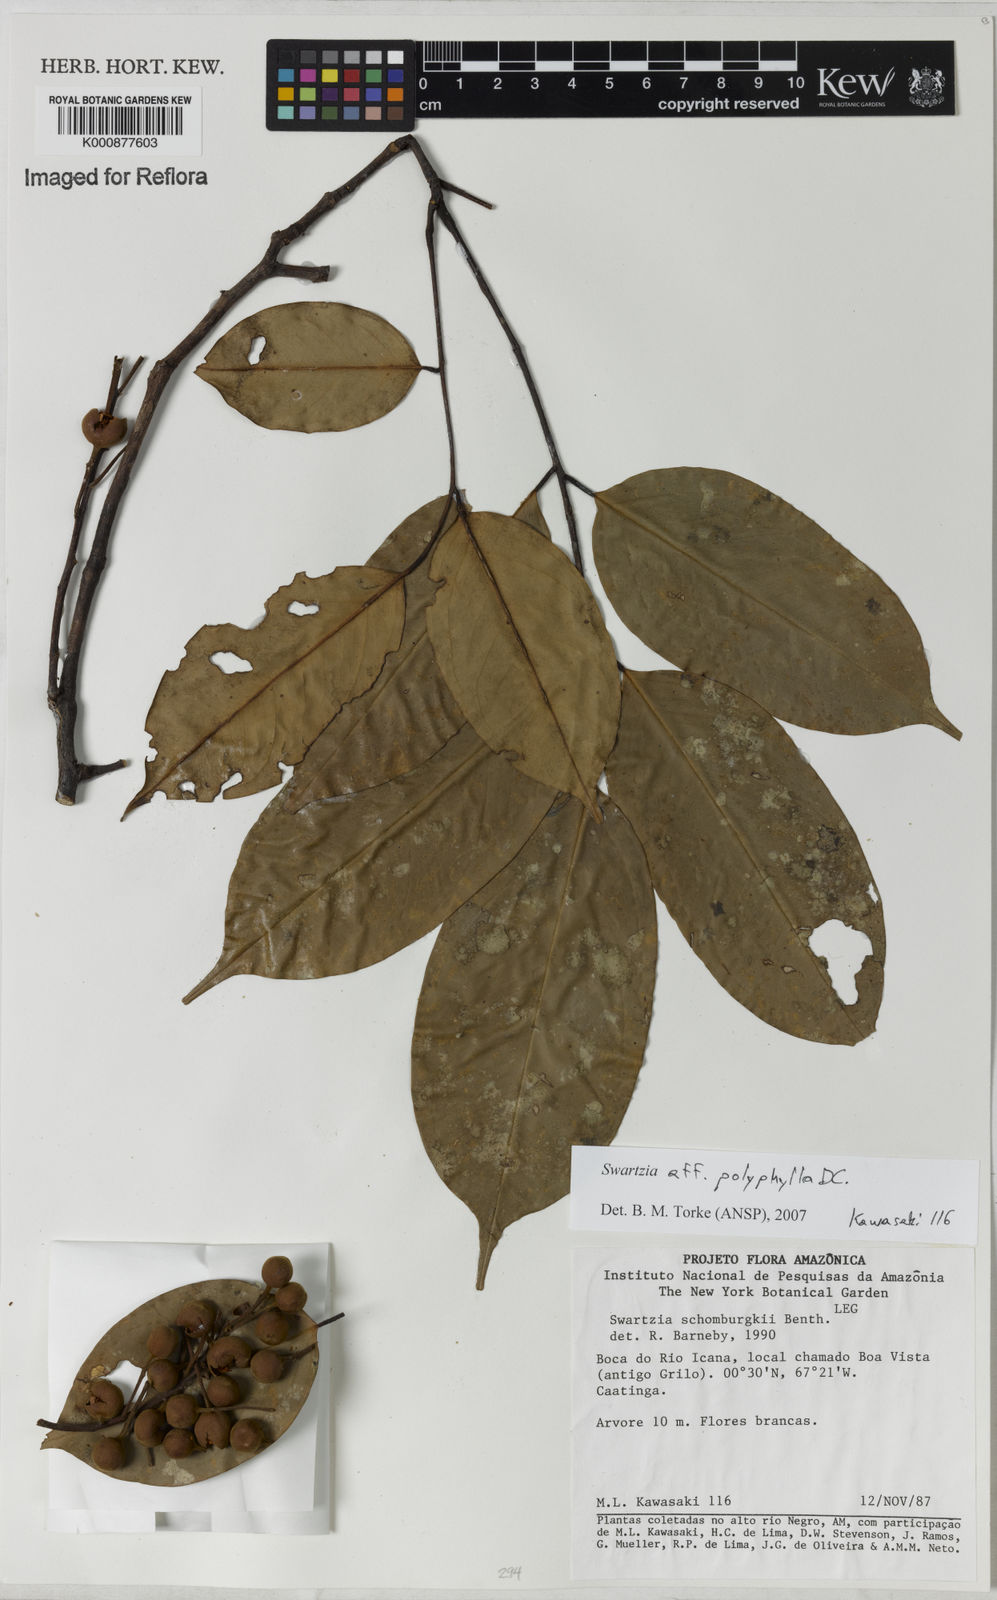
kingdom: Plantae
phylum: Tracheophyta
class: Magnoliopsida
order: Fabales
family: Fabaceae
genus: Swartzia
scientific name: Swartzia polyphylla
